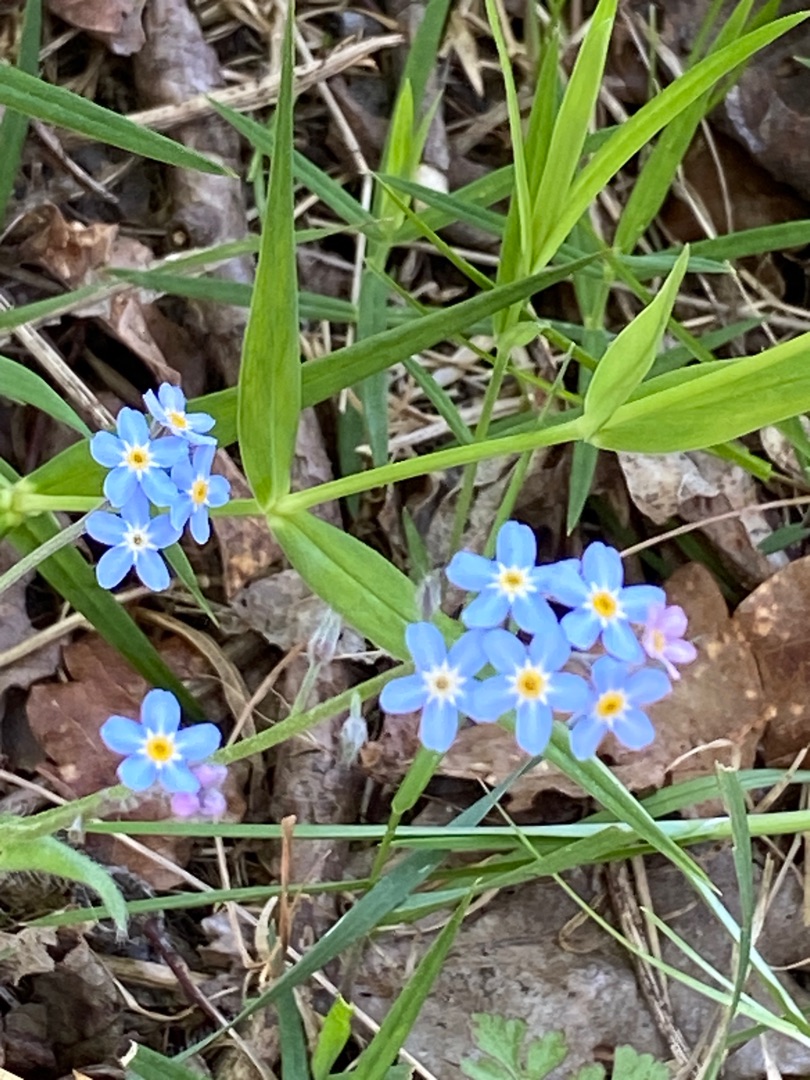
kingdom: Plantae
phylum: Tracheophyta
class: Magnoliopsida
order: Boraginales
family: Boraginaceae
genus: Myosotis
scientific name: Myosotis scorpioides
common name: Eng-forglemmigej
